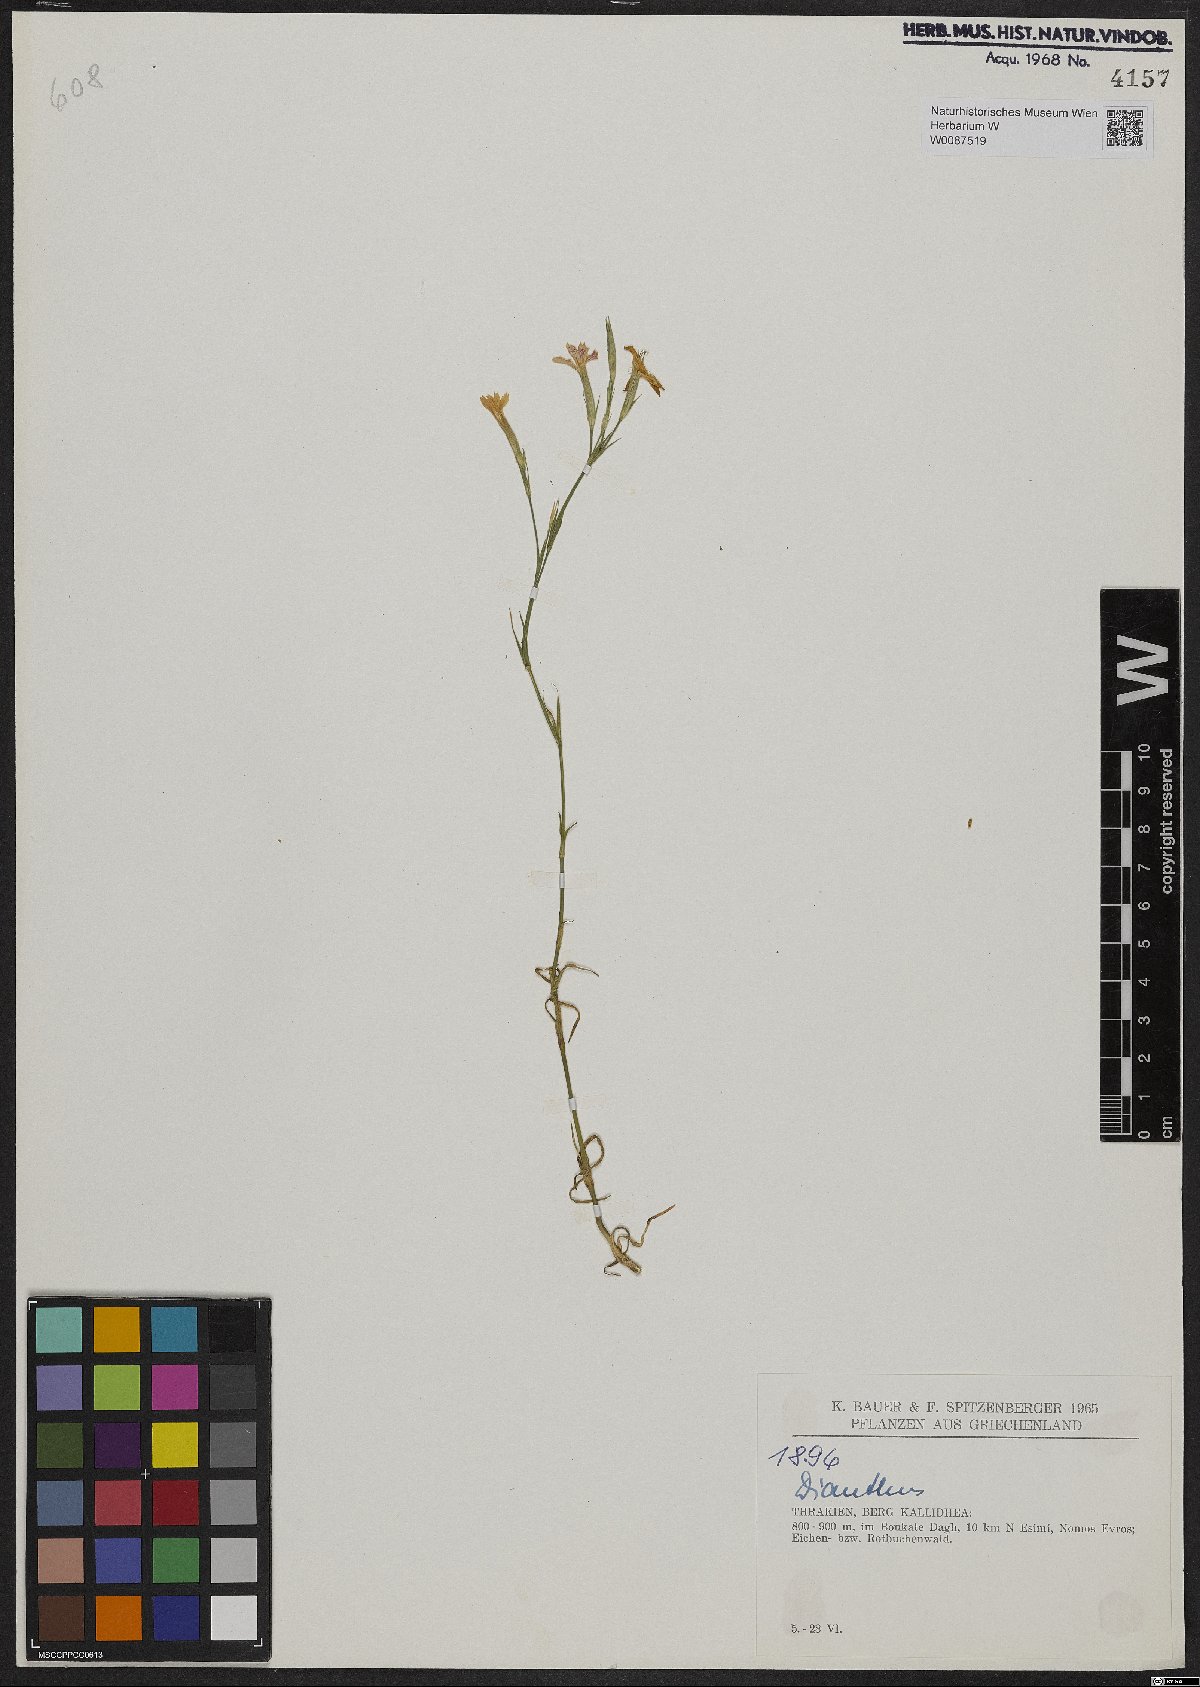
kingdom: Plantae
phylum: Tracheophyta
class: Magnoliopsida
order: Caryophyllales
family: Caryophyllaceae
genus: Dianthus
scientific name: Dianthus
